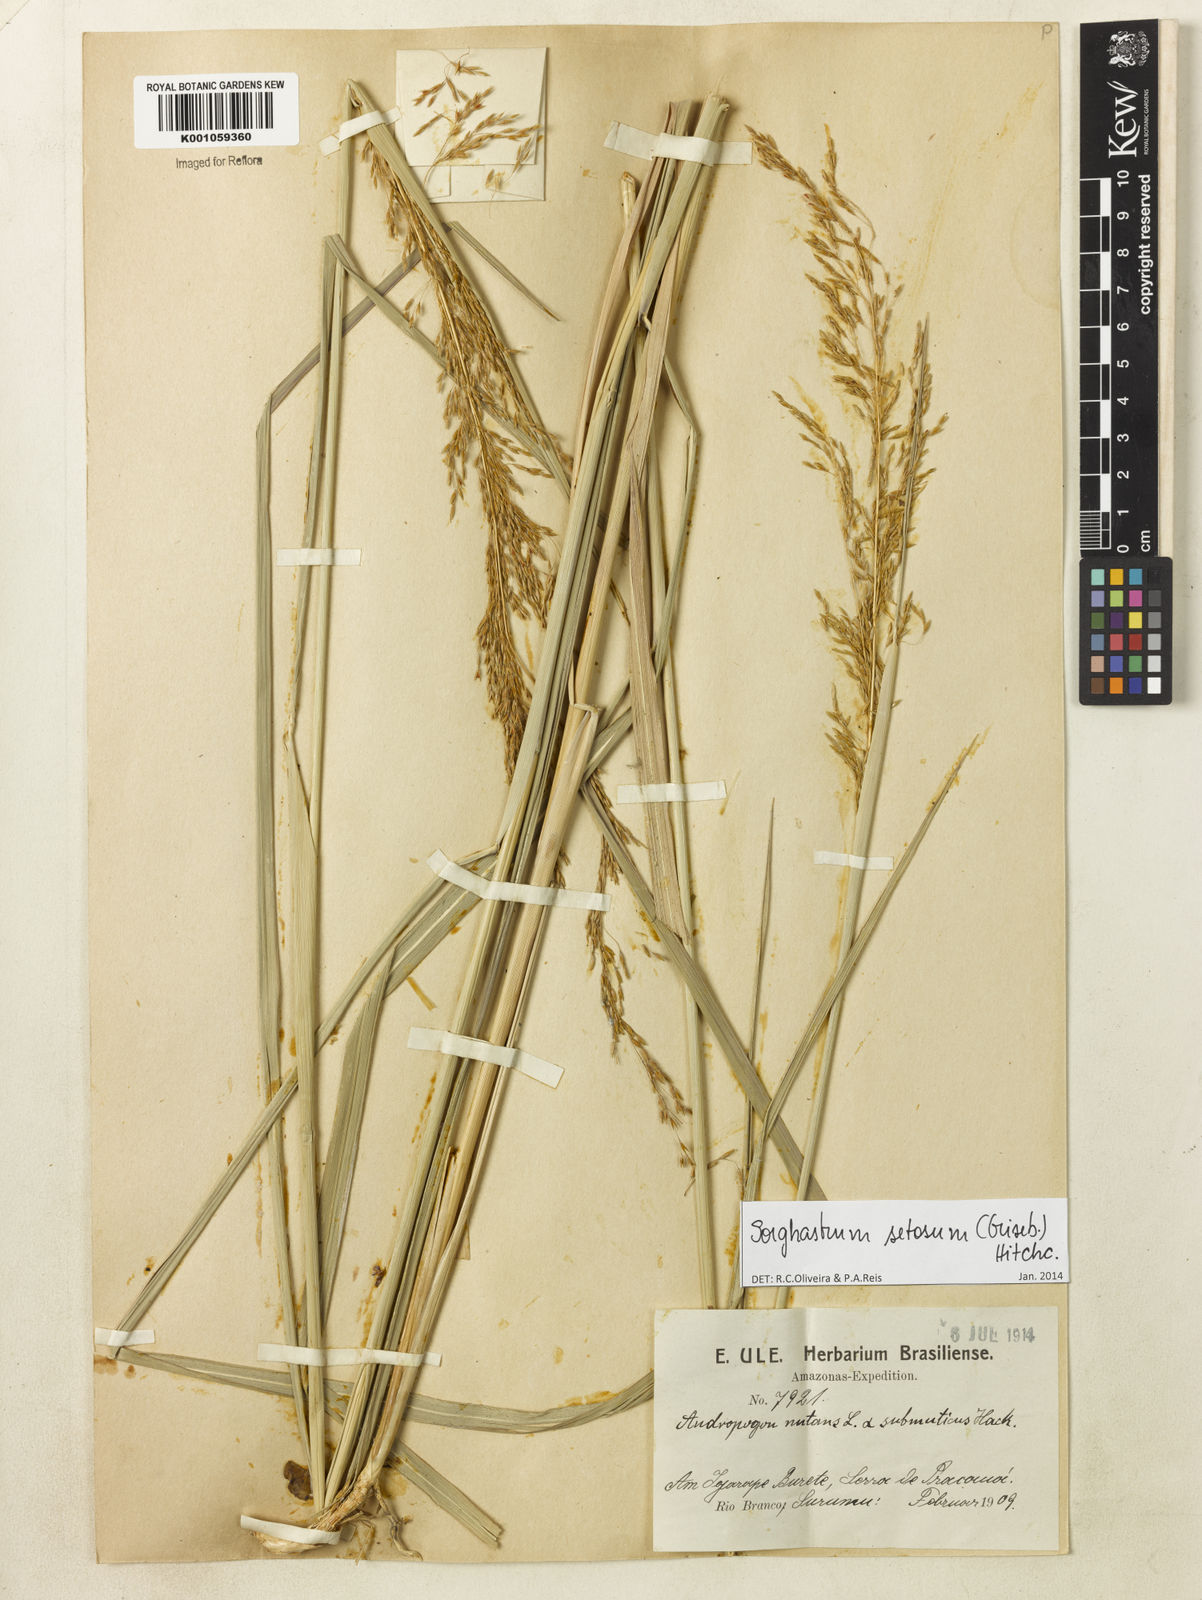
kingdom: Plantae
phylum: Tracheophyta
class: Liliopsida
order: Poales
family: Poaceae
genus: Sorghastrum
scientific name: Sorghastrum setosum
